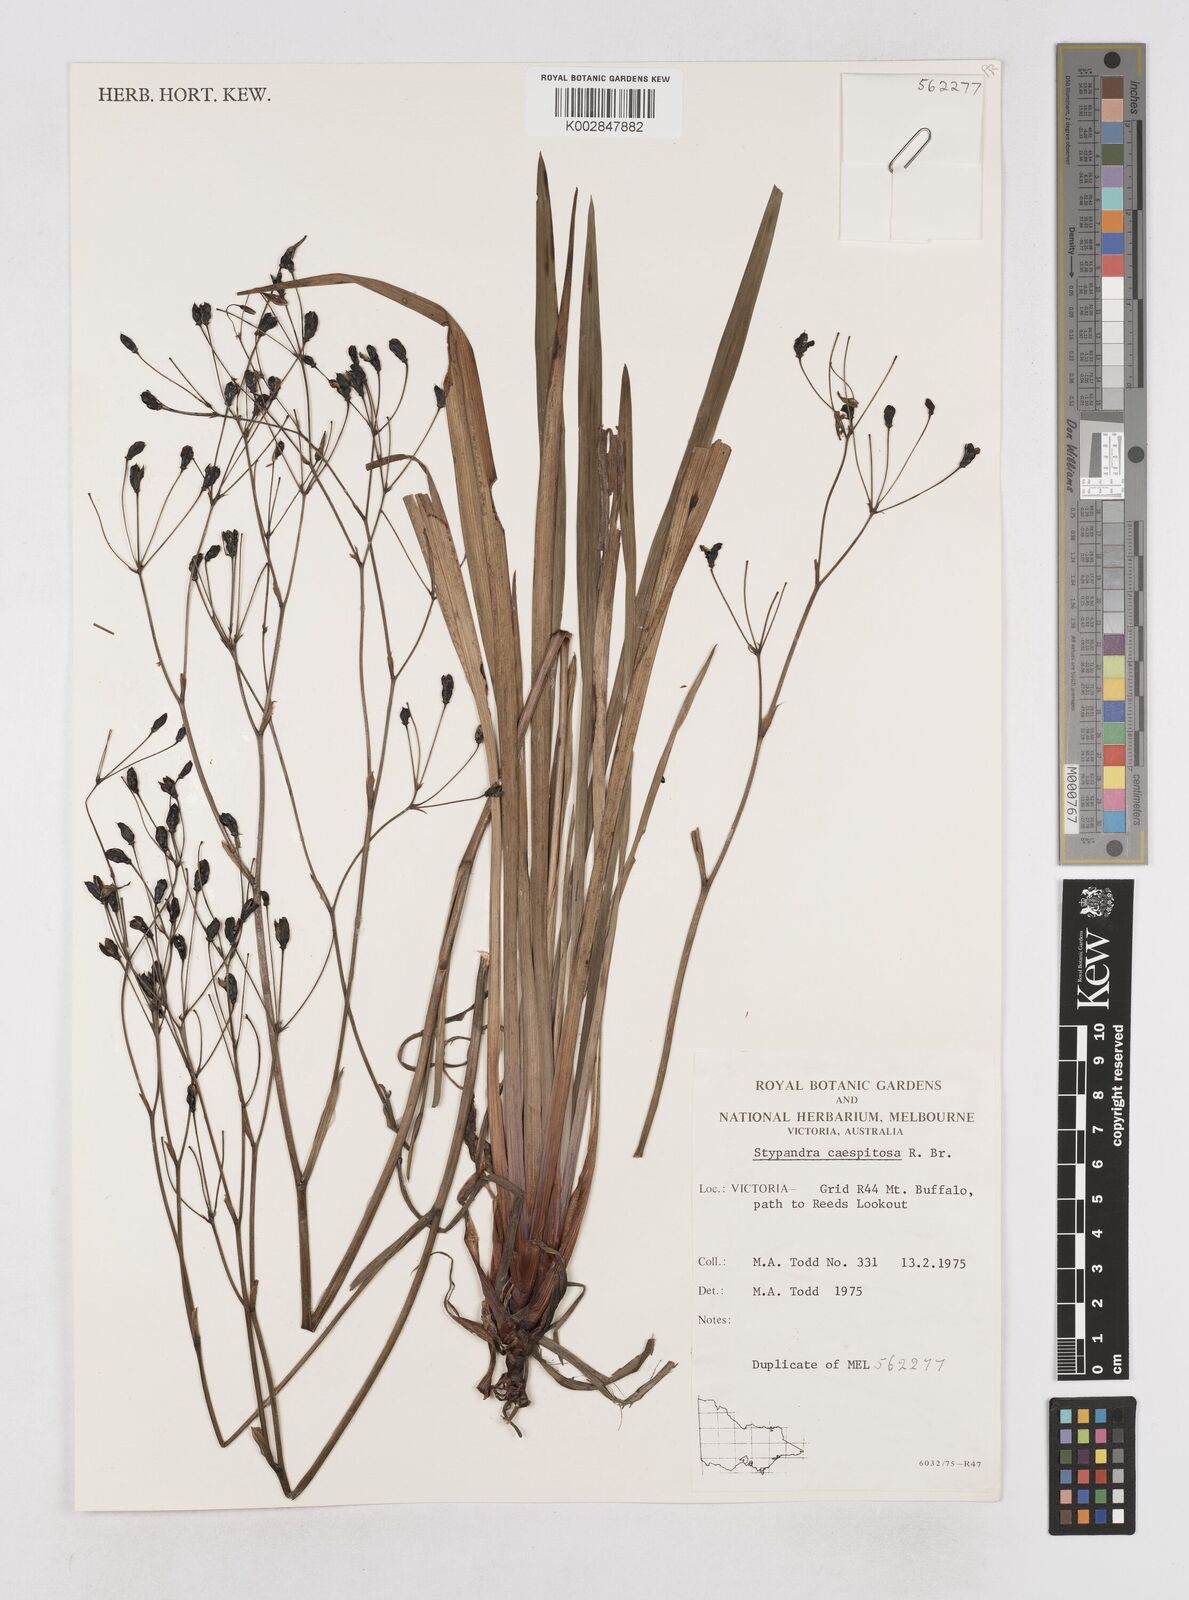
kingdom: Plantae
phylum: Tracheophyta
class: Liliopsida
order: Asparagales
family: Asphodelaceae
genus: Thelionema
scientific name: Thelionema caespitosum
